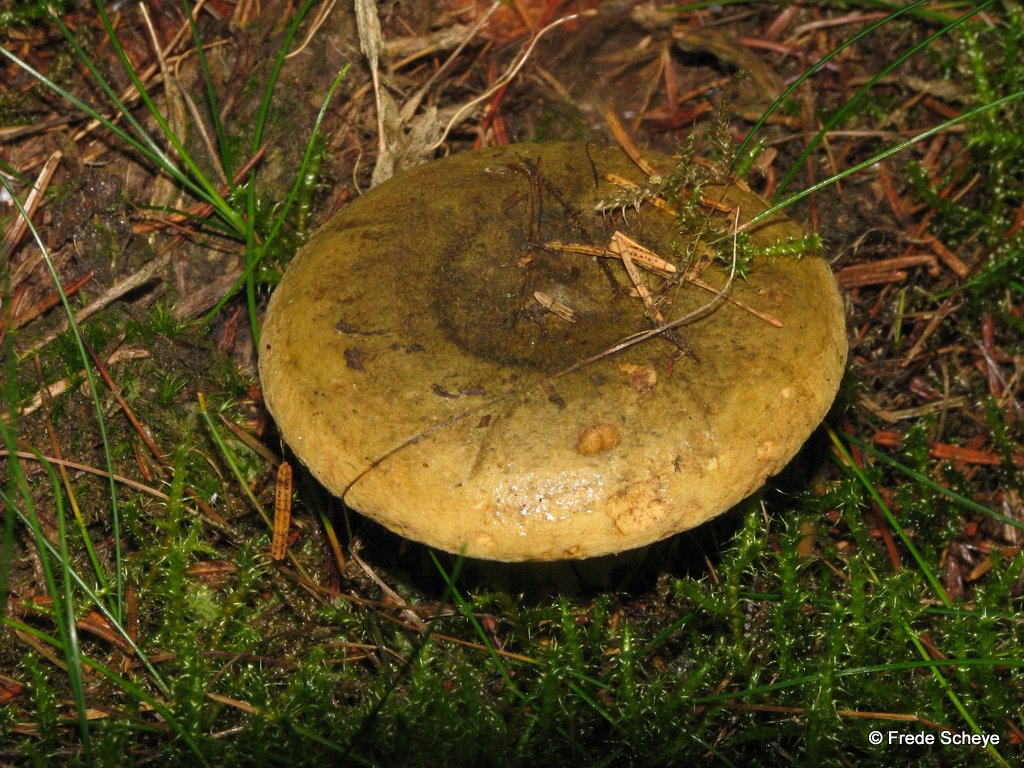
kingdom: Fungi
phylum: Basidiomycota
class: Agaricomycetes
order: Russulales
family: Russulaceae
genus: Lactarius
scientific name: Lactarius necator
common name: manddraber-mælkehat
